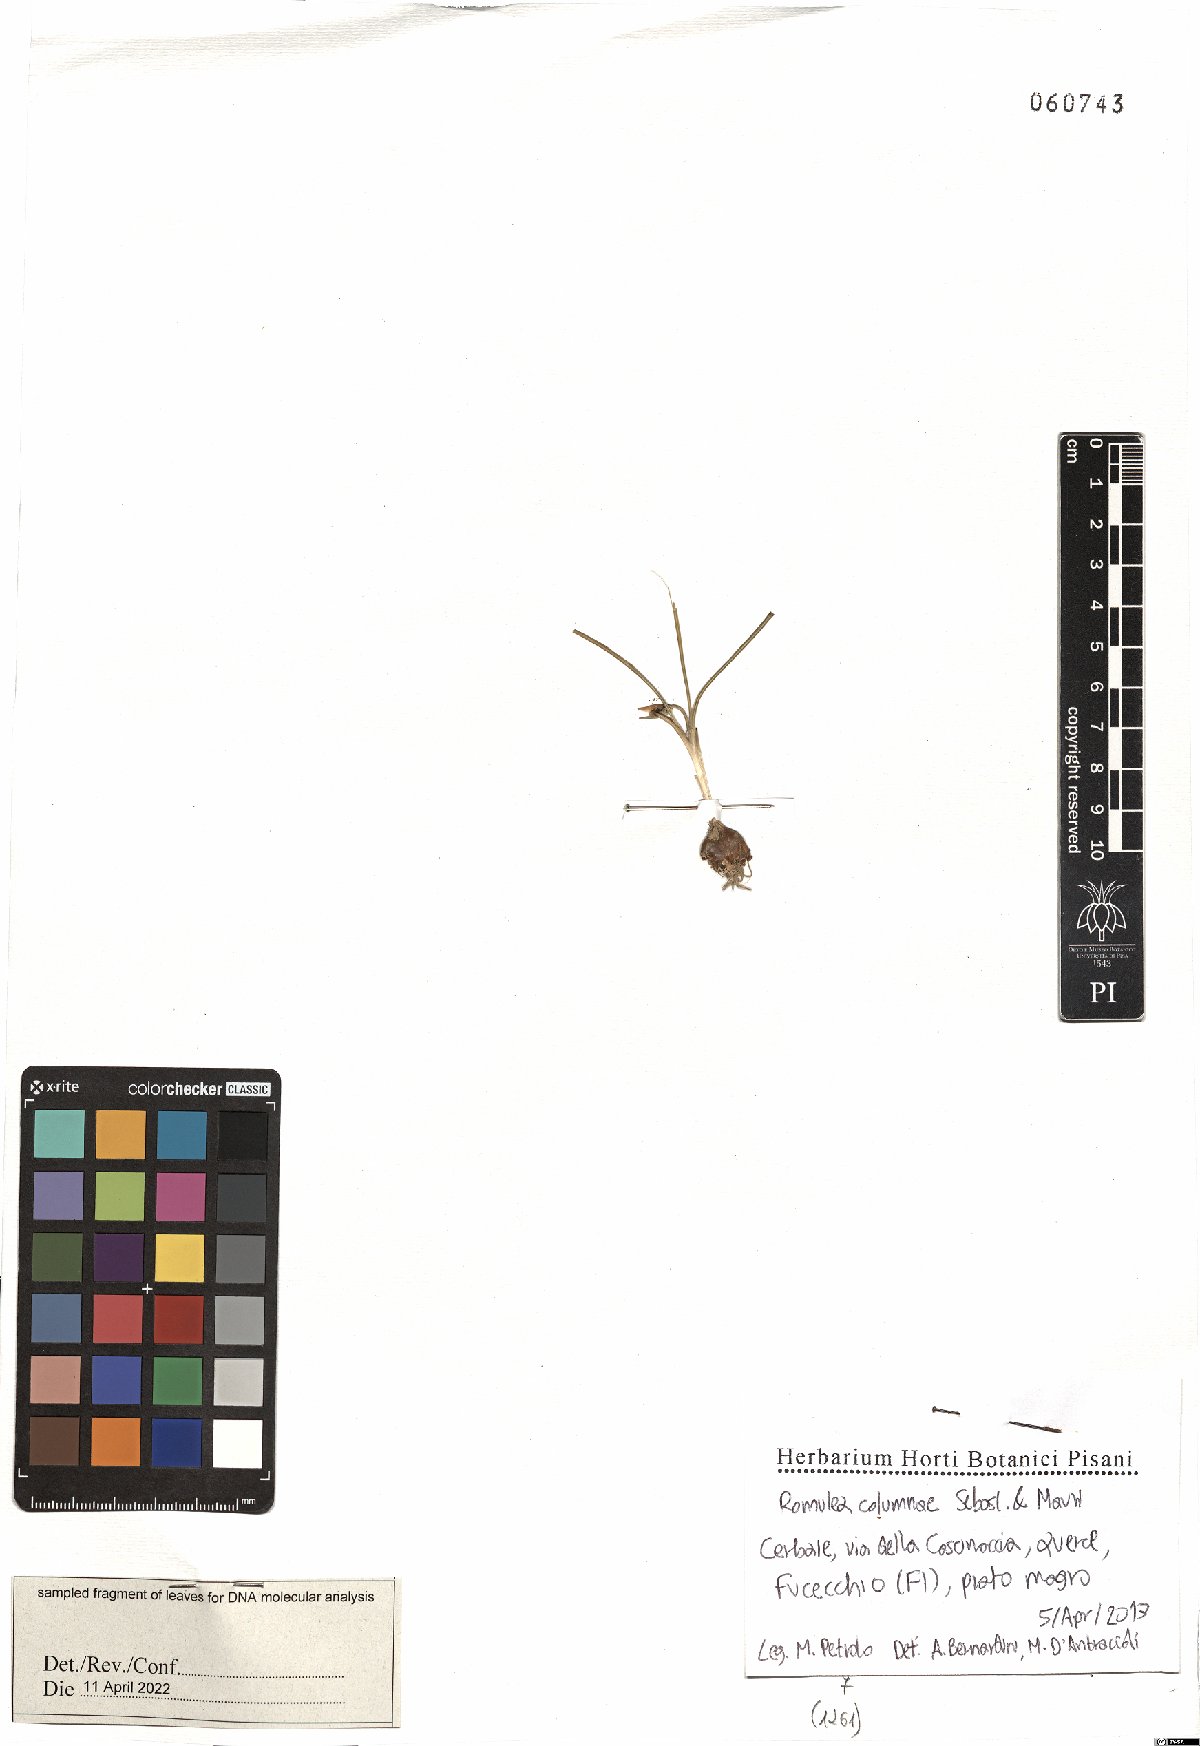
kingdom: Plantae
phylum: Tracheophyta
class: Liliopsida
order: Asparagales
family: Iridaceae
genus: Romulea
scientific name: Romulea columnae
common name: Sand-crocus
